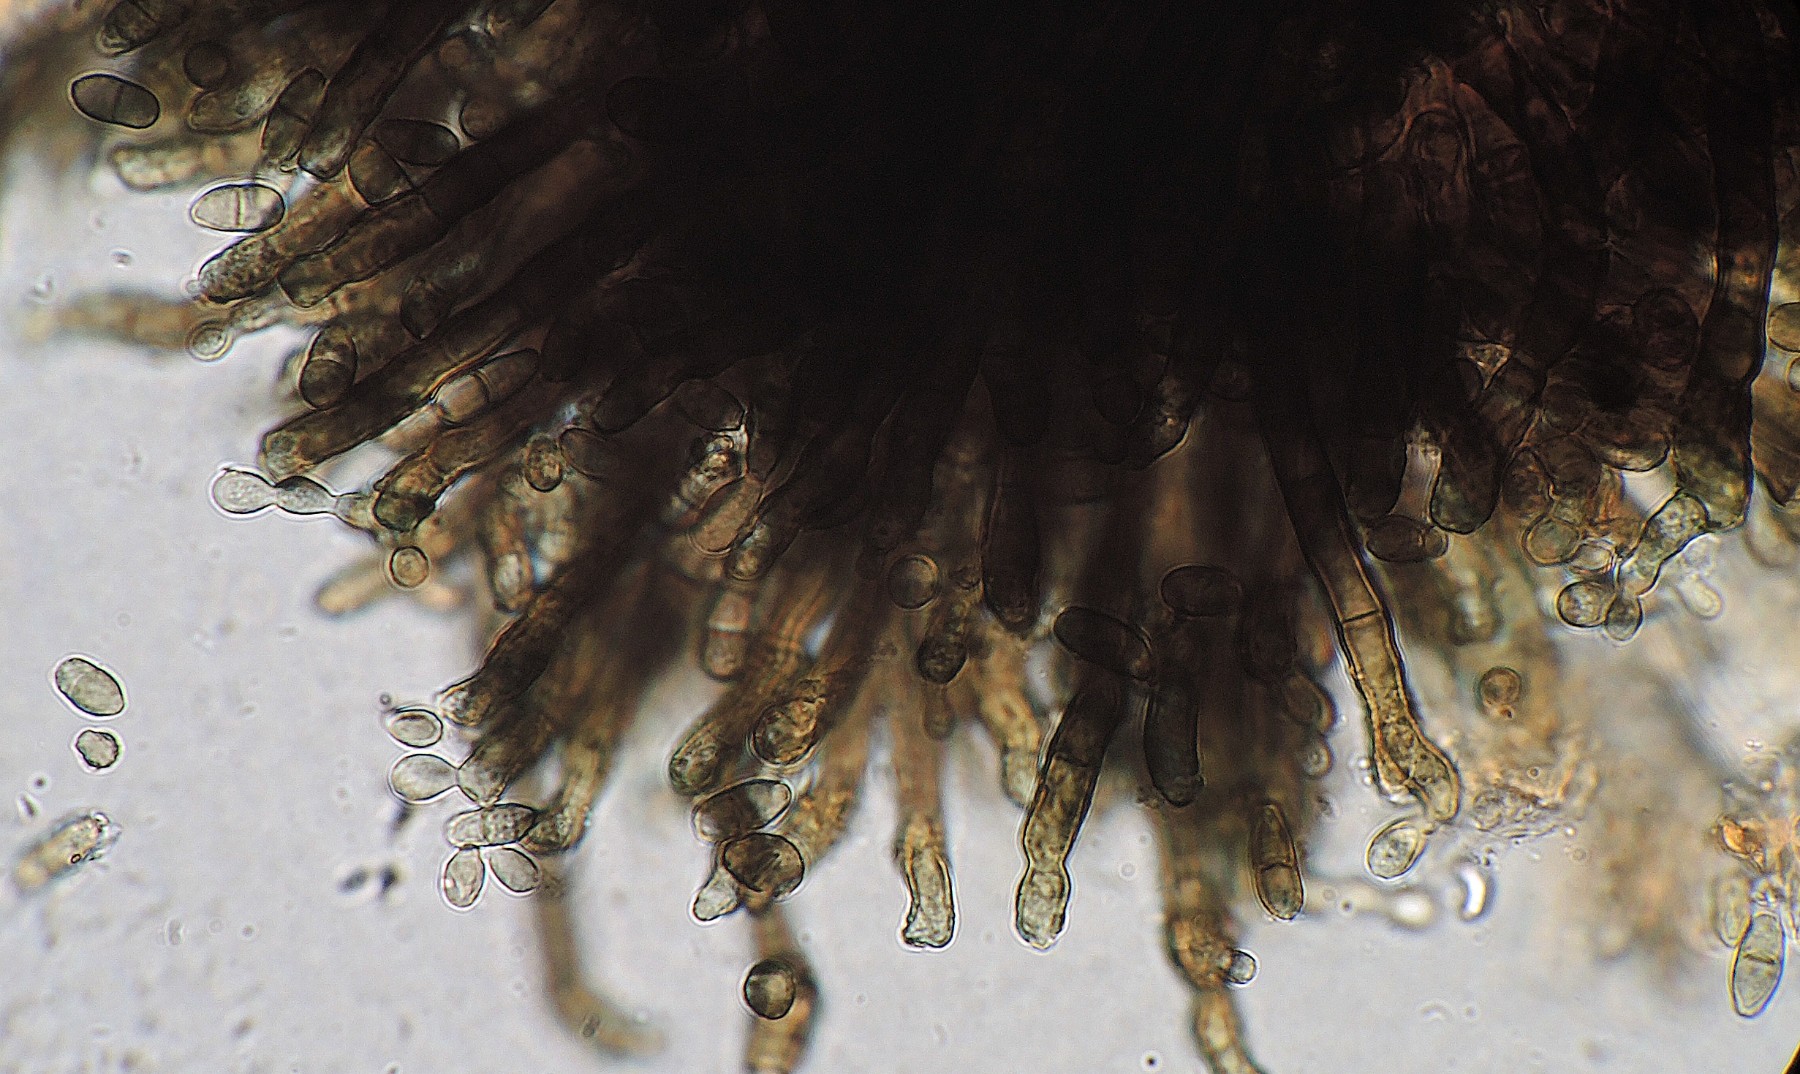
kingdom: Fungi
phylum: Ascomycota
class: Dothideomycetes
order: Capnodiales
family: Cladosporiaceae
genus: Cladosporium
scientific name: Cladosporium
